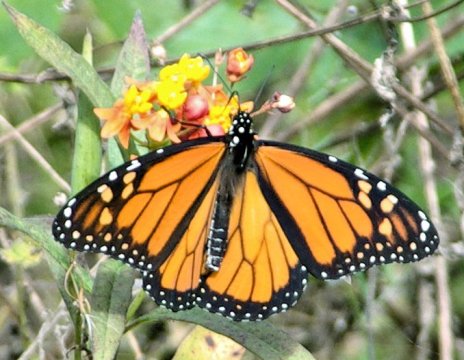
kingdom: Animalia
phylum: Arthropoda
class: Insecta
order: Lepidoptera
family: Nymphalidae
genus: Danaus
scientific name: Danaus plexippus
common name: Monarch
